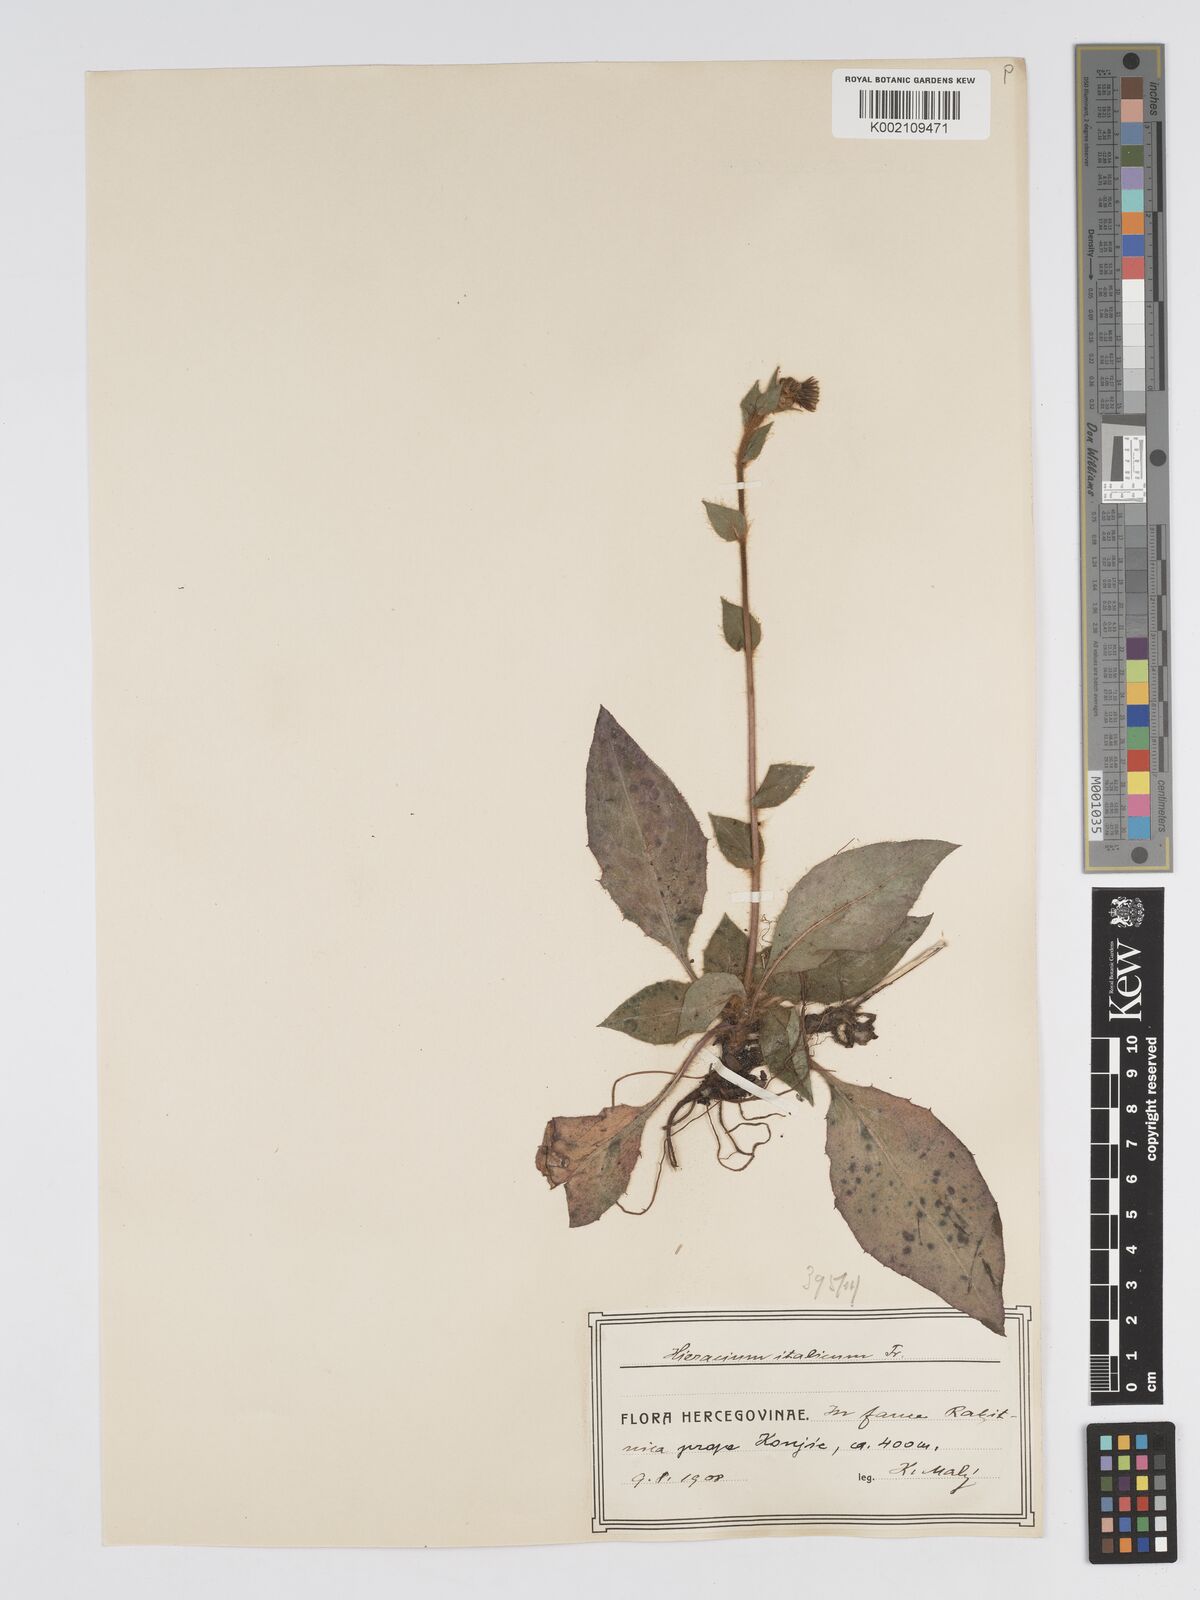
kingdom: Plantae
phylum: Tracheophyta
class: Magnoliopsida
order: Asterales
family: Asteraceae
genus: Hieracium
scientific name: Hieracium racemosum
